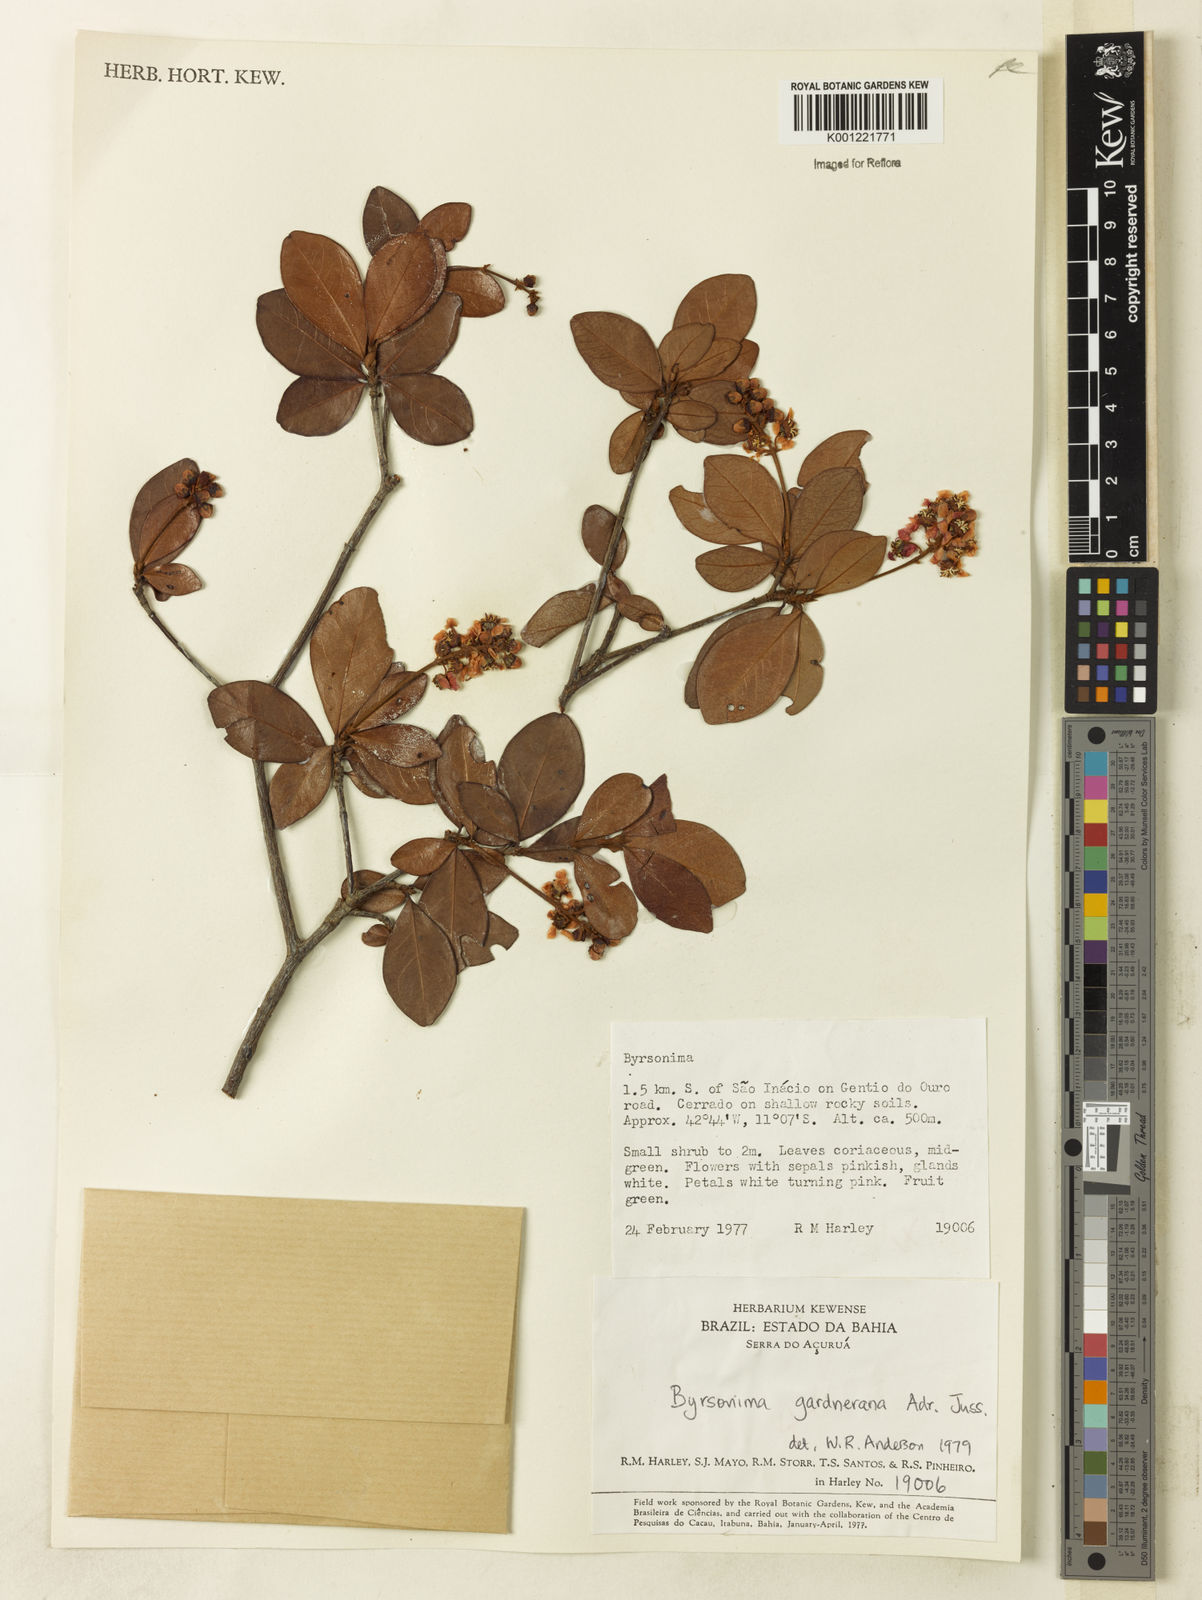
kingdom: Plantae
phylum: Tracheophyta
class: Magnoliopsida
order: Malpighiales
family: Malpighiaceae
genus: Byrsonima
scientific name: Byrsonima gardneriana
